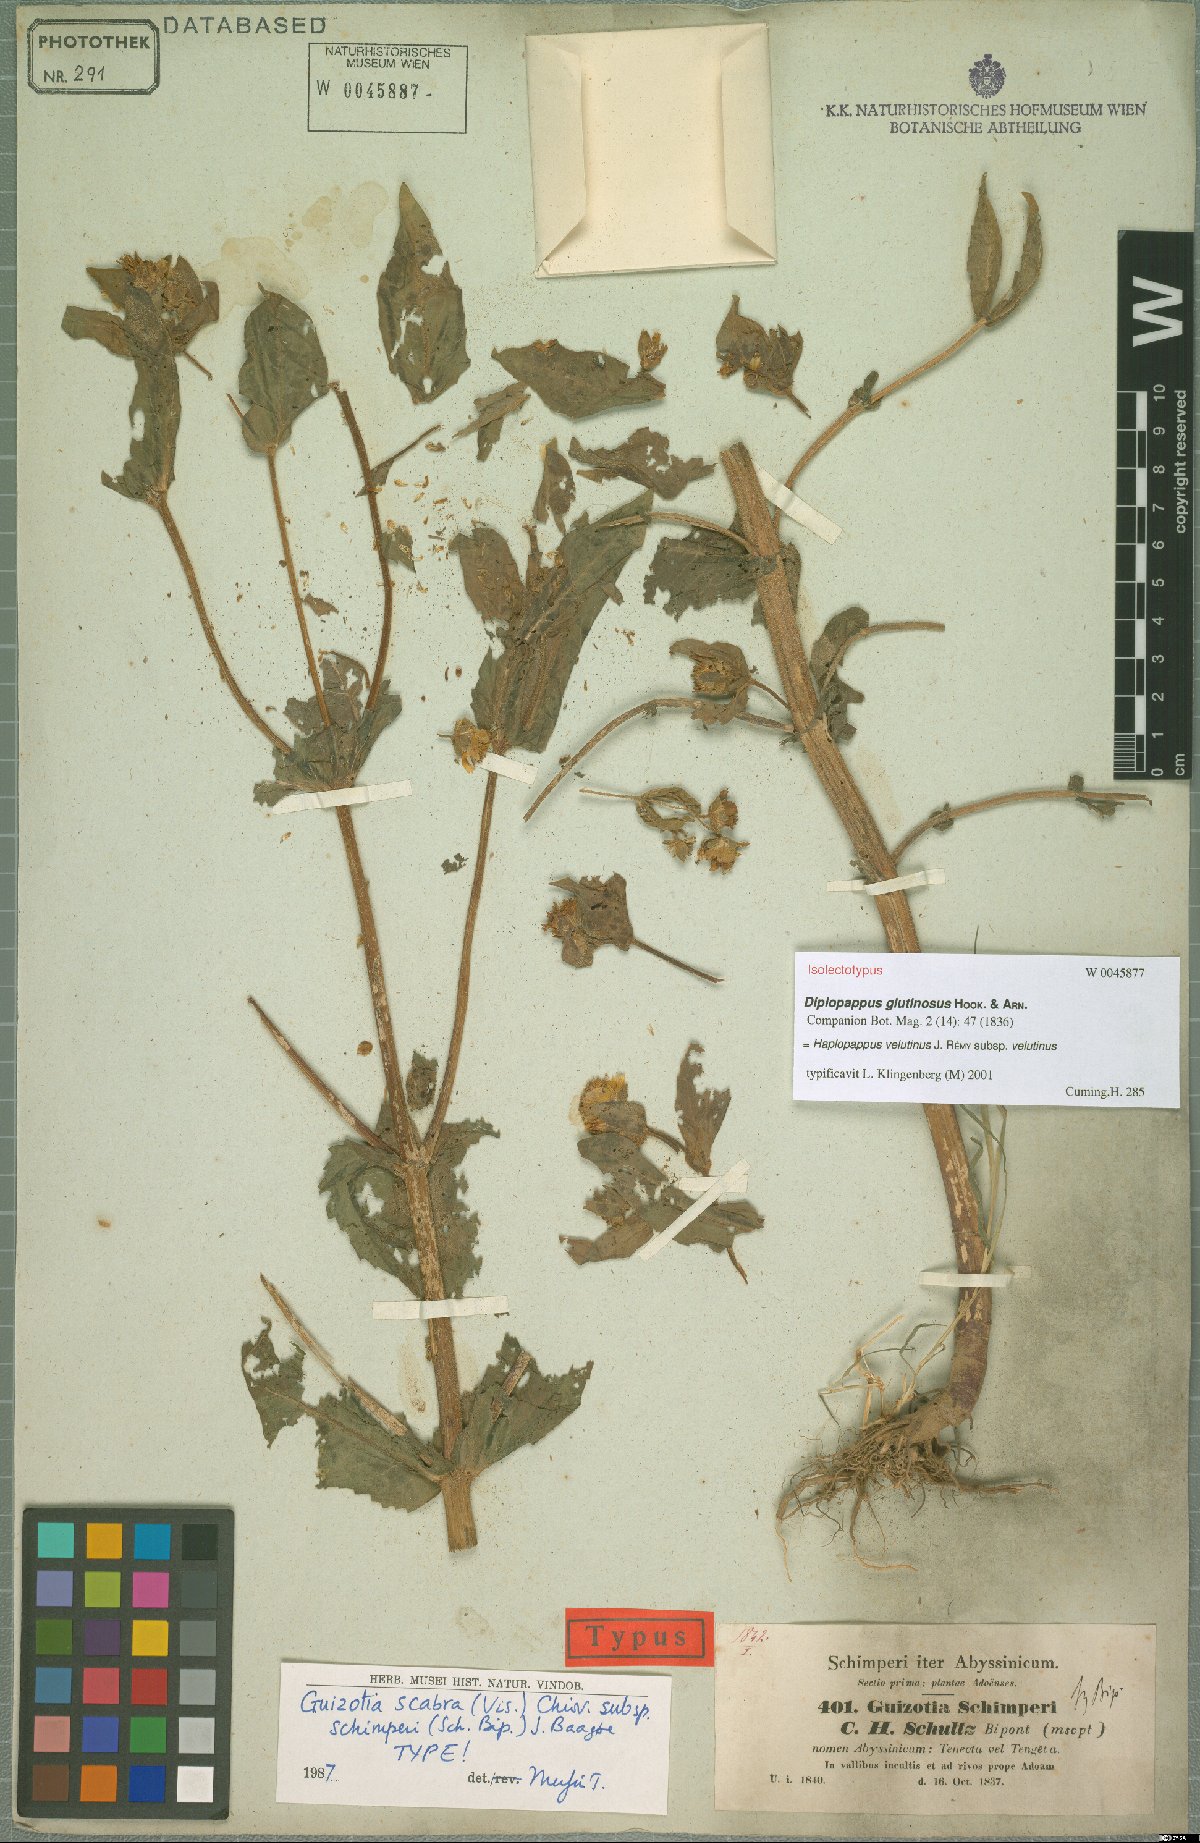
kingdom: Plantae
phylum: Tracheophyta
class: Magnoliopsida
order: Asterales
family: Asteraceae
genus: Guizotia
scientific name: Guizotia schimperi
